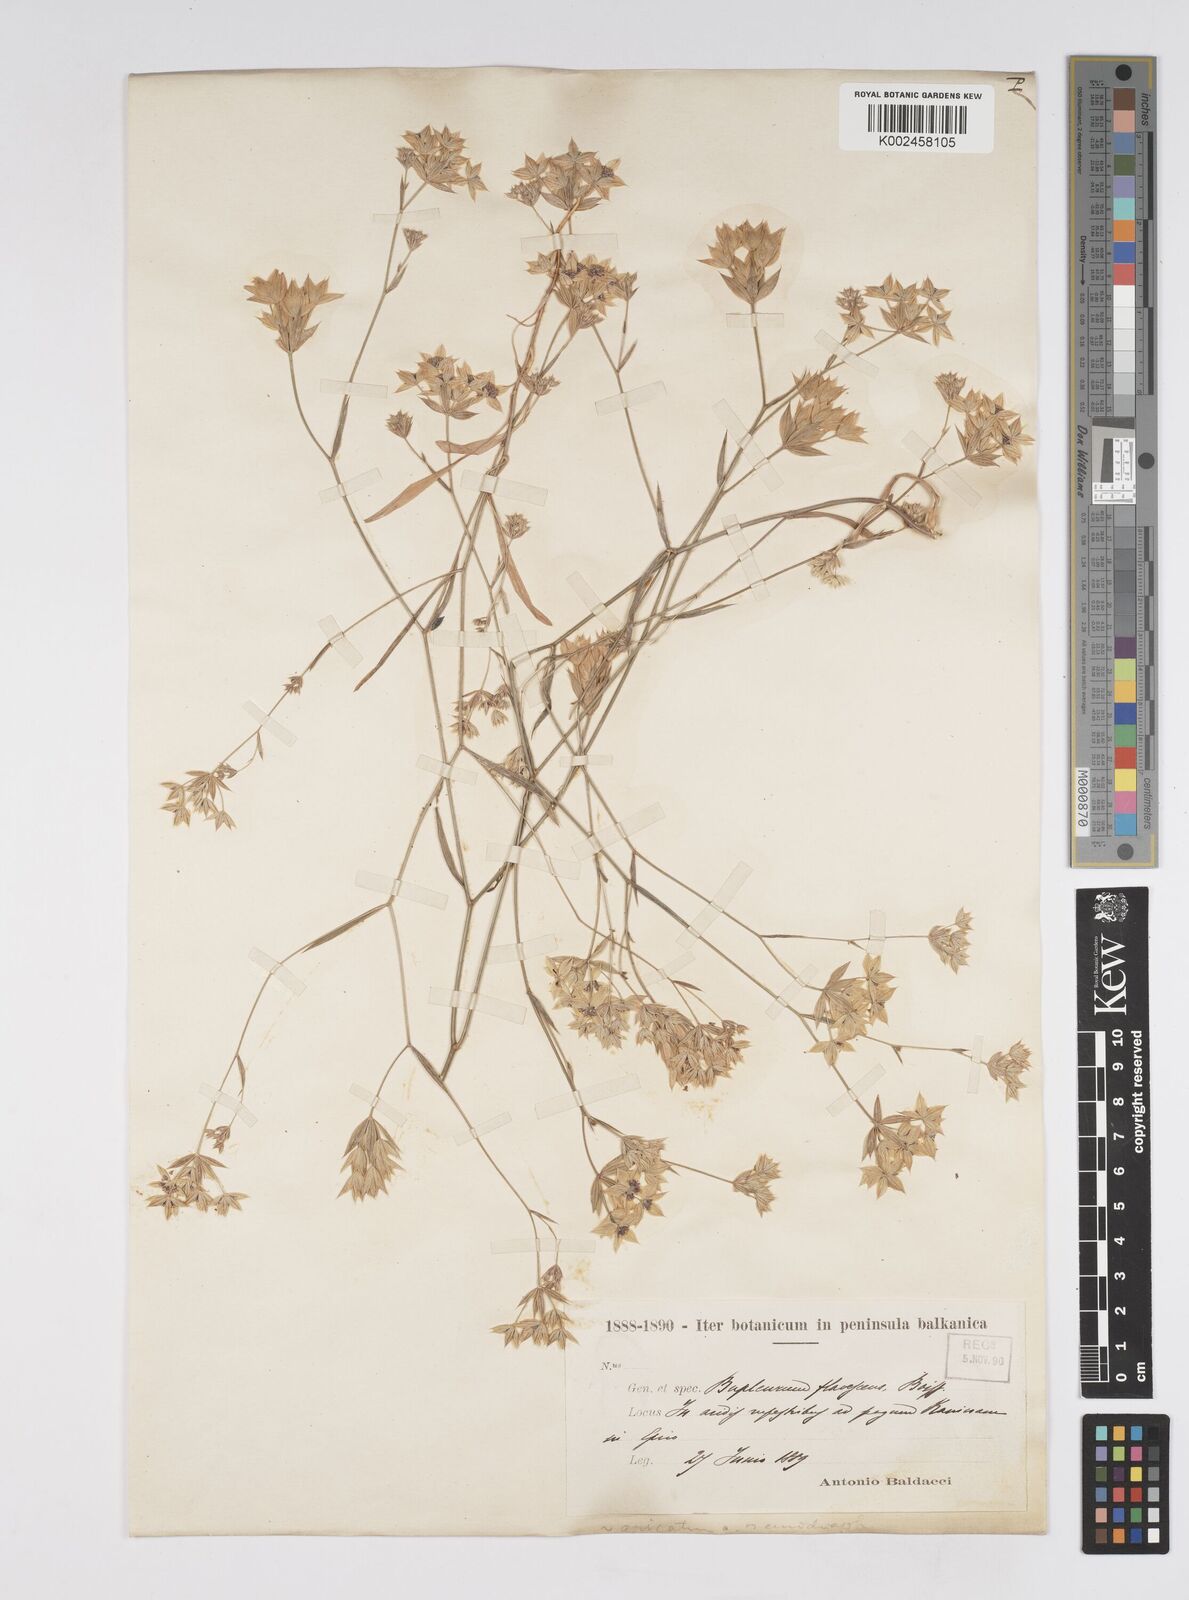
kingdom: Plantae
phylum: Tracheophyta
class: Magnoliopsida
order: Apiales
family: Apiaceae
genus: Bupleurum
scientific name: Bupleurum baldense
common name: Small hare's-ear
